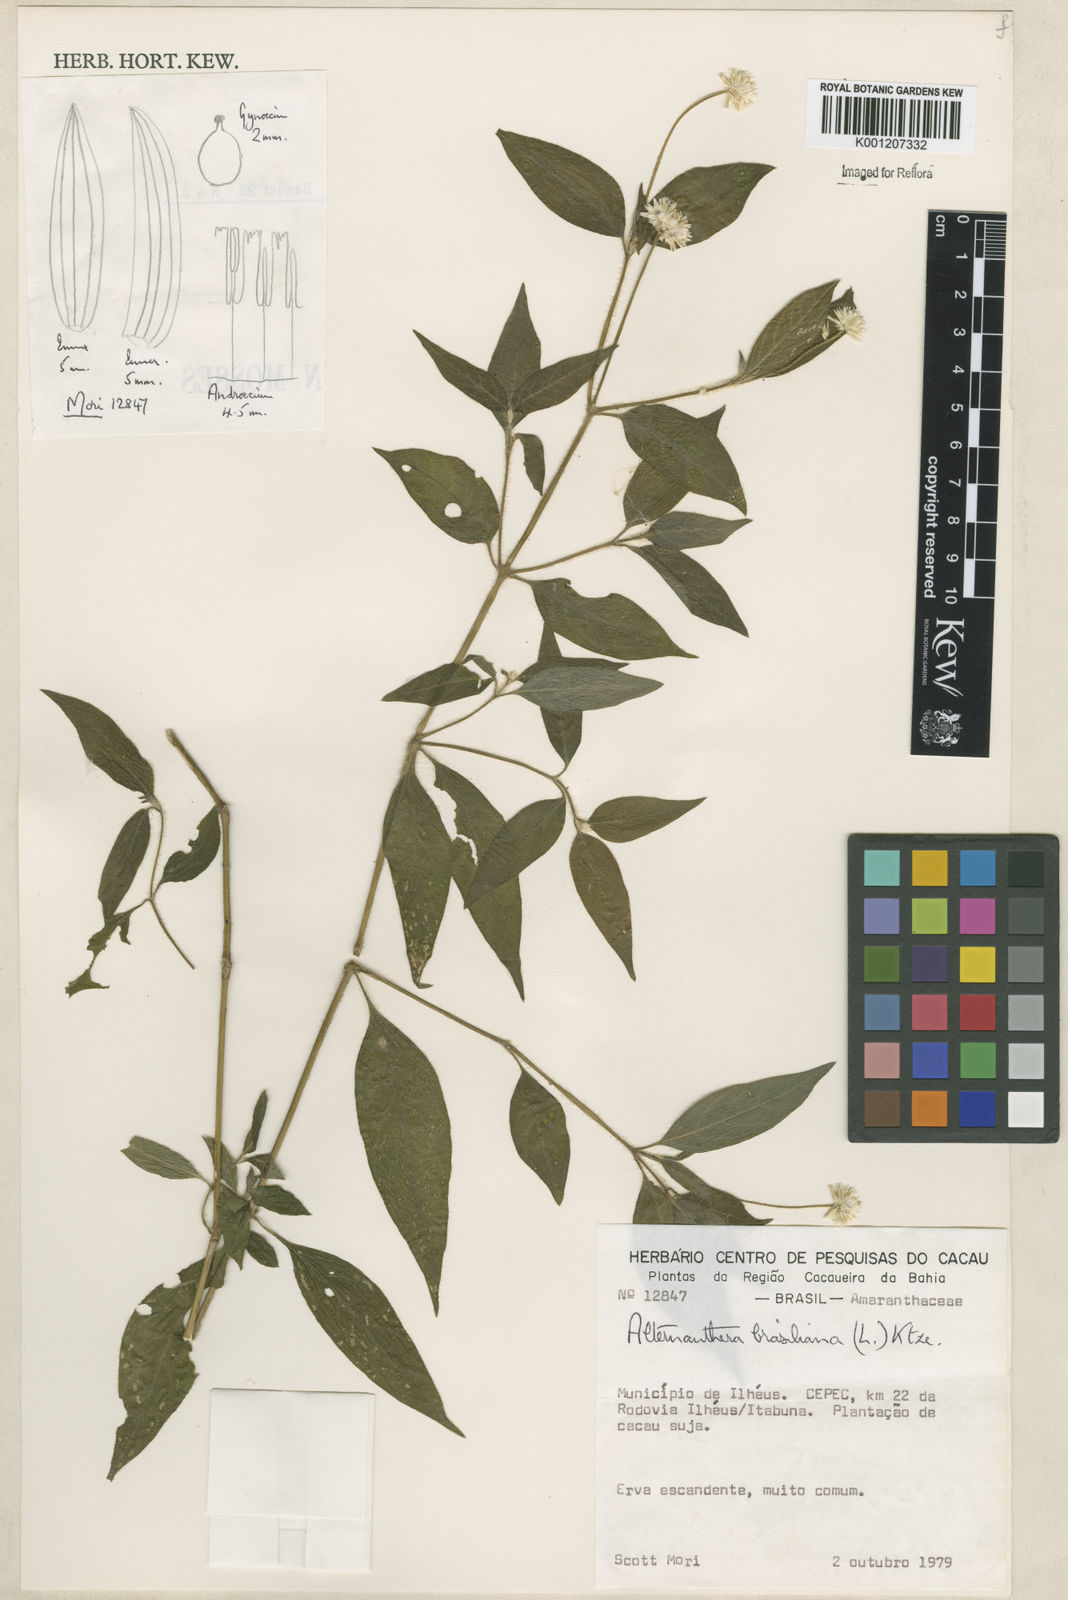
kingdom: Plantae
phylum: Tracheophyta
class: Magnoliopsida
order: Caryophyllales
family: Amaranthaceae
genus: Alternanthera
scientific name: Alternanthera brasiliana
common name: Brazilian joyweed
